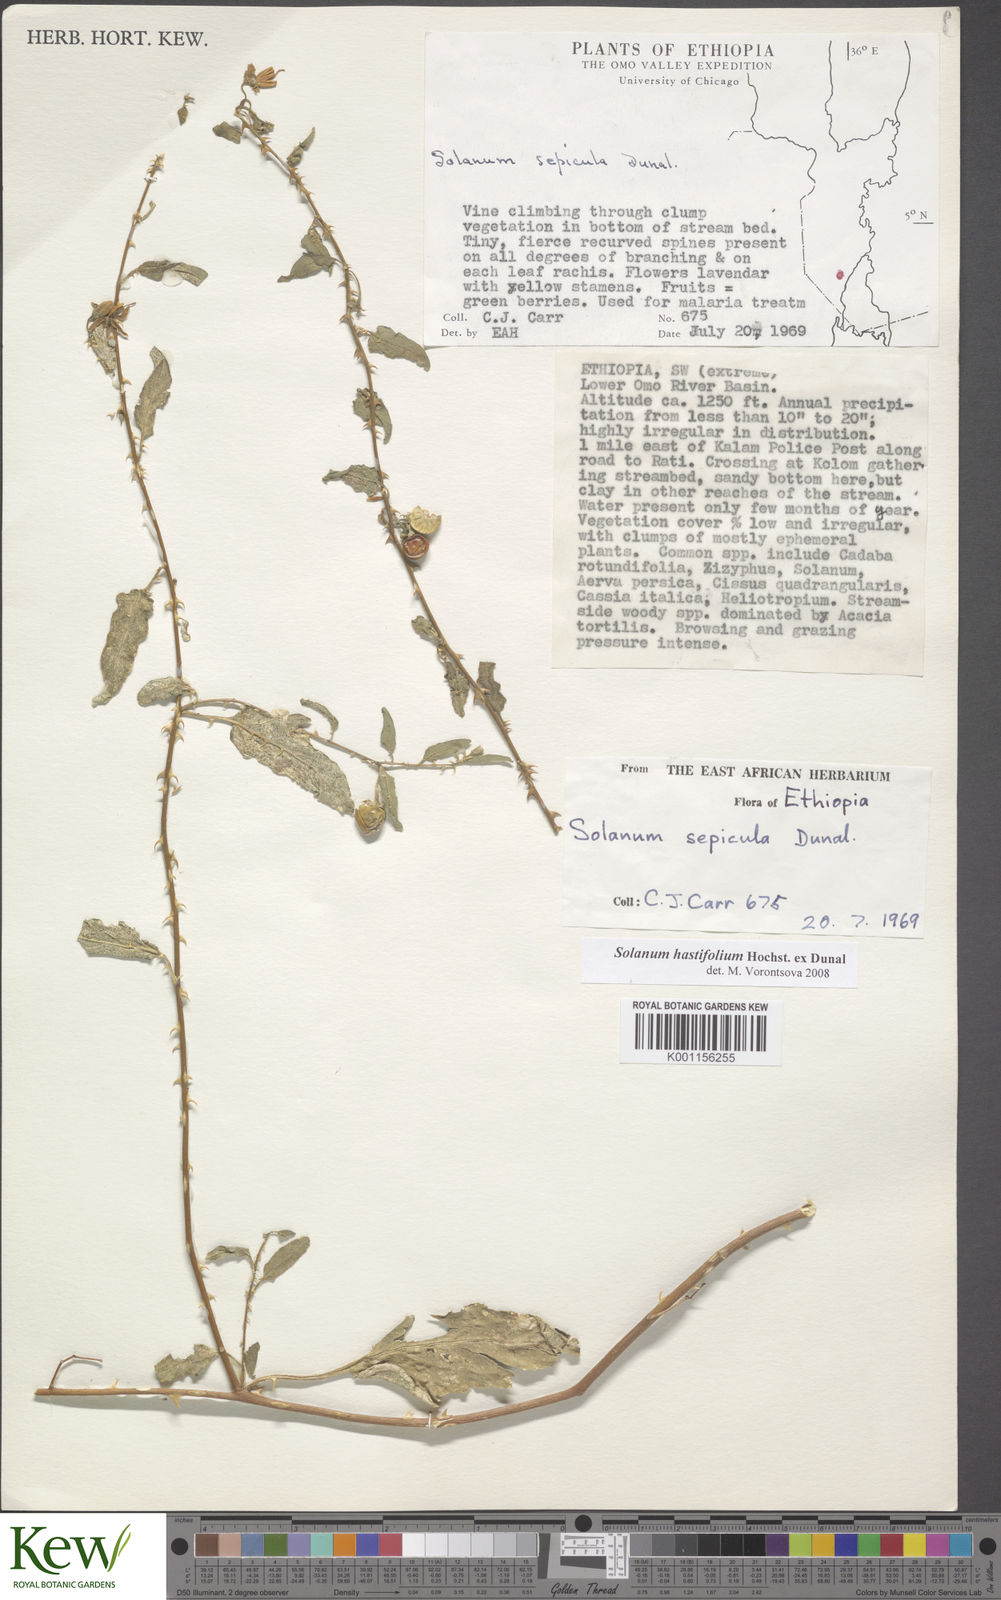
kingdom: Plantae
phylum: Tracheophyta
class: Magnoliopsida
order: Solanales
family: Solanaceae
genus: Solanum
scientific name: Solanum hastifolium
